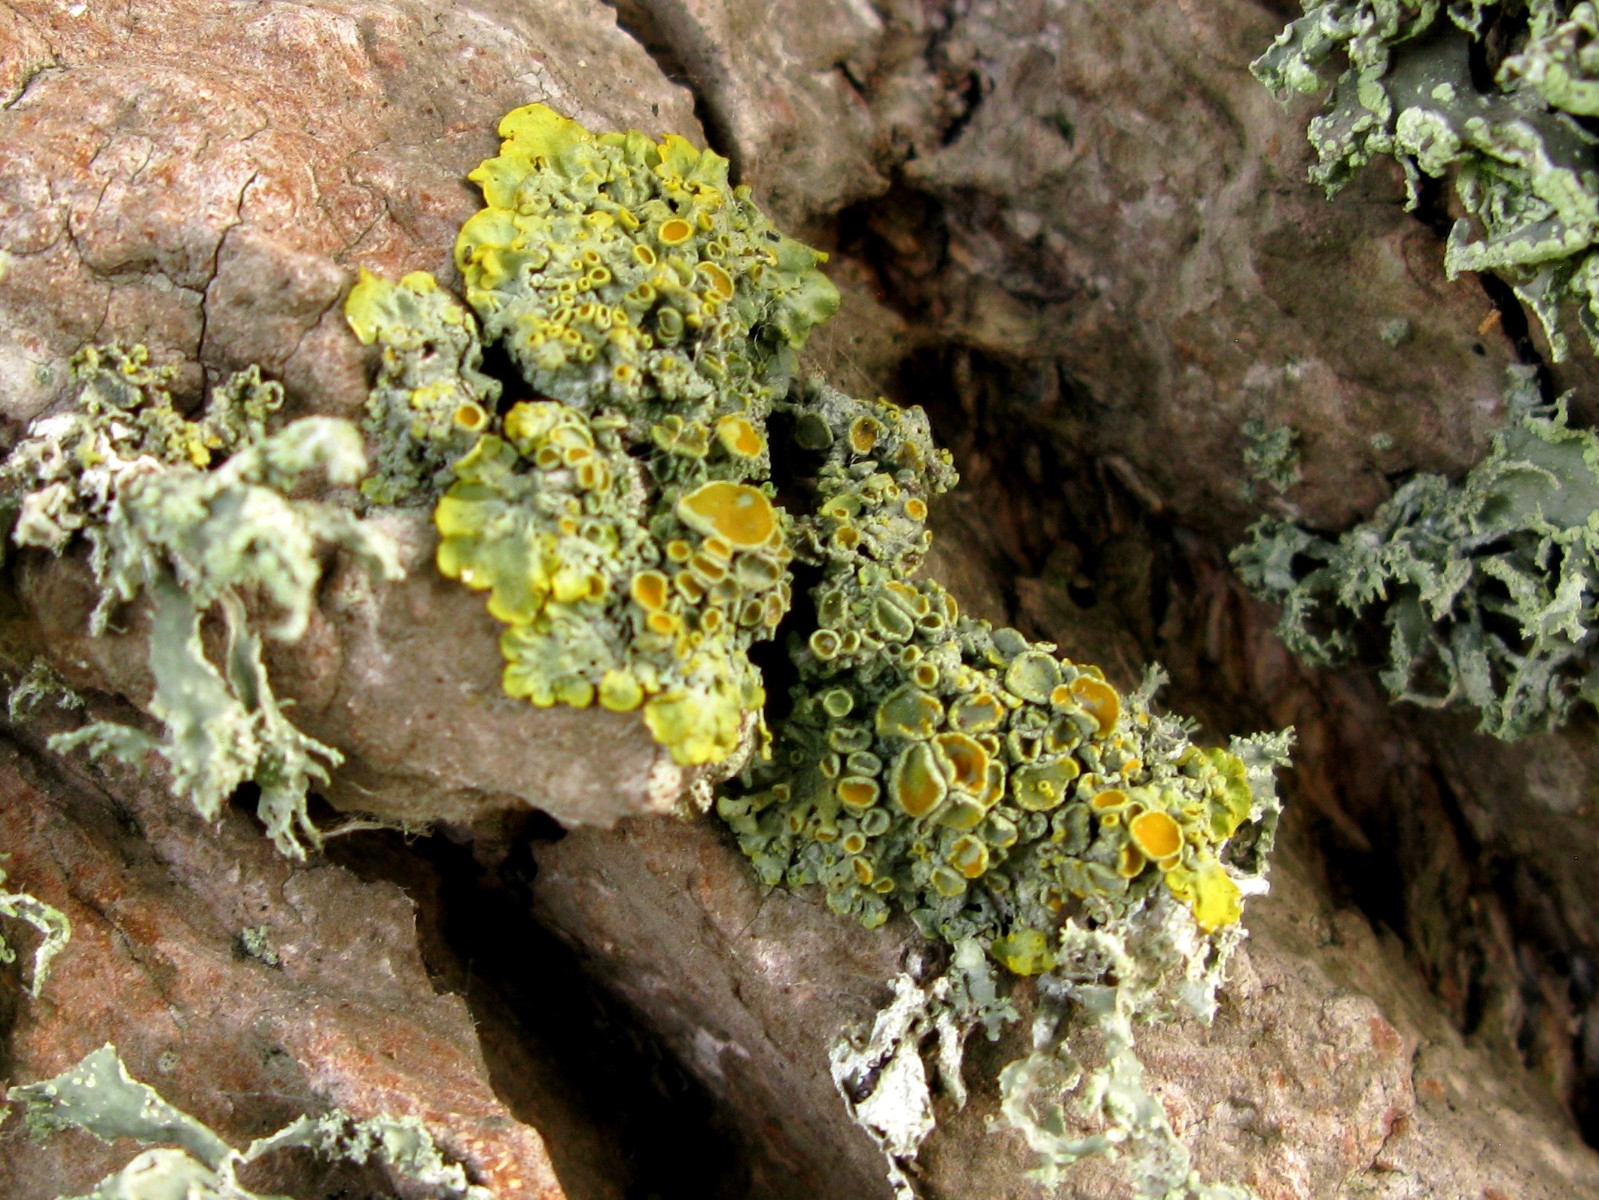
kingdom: Fungi
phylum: Ascomycota
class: Lecanoromycetes
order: Teloschistales
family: Teloschistaceae
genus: Xanthoria
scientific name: Xanthoria parietina
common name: almindelig væggelav
